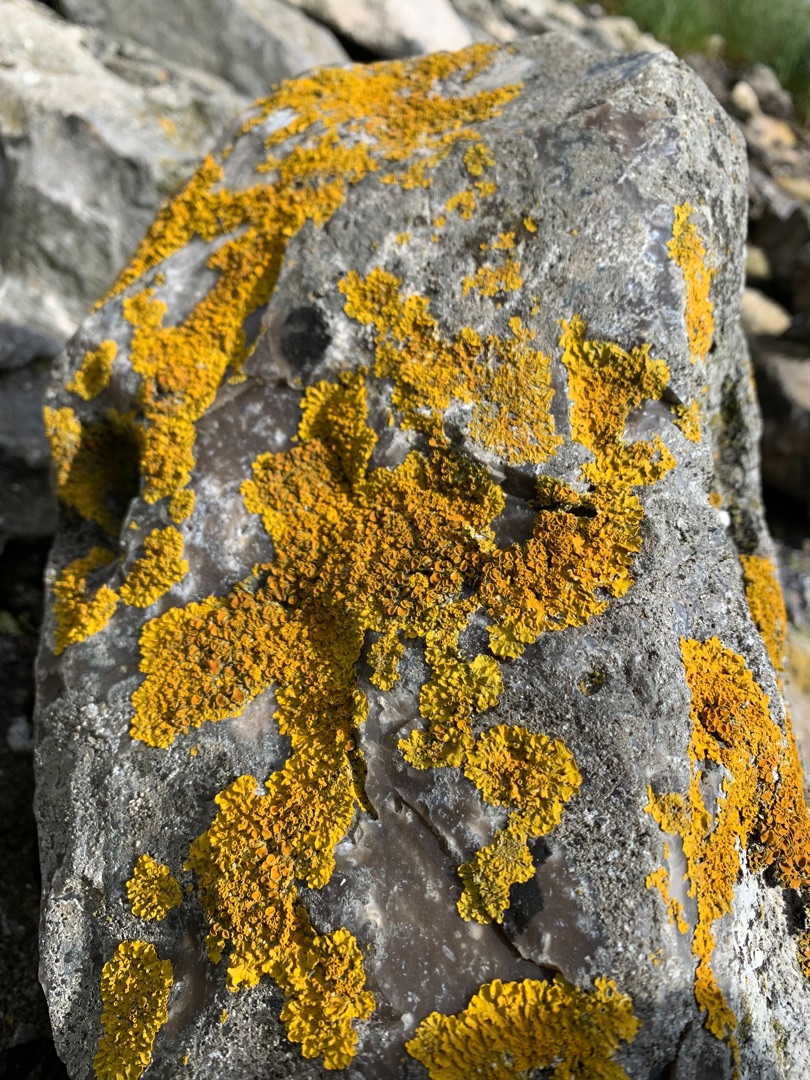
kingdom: Fungi
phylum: Ascomycota
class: Lecanoromycetes
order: Teloschistales
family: Teloschistaceae
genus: Xanthoria
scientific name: Xanthoria parietina
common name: Almindelig væggelav
